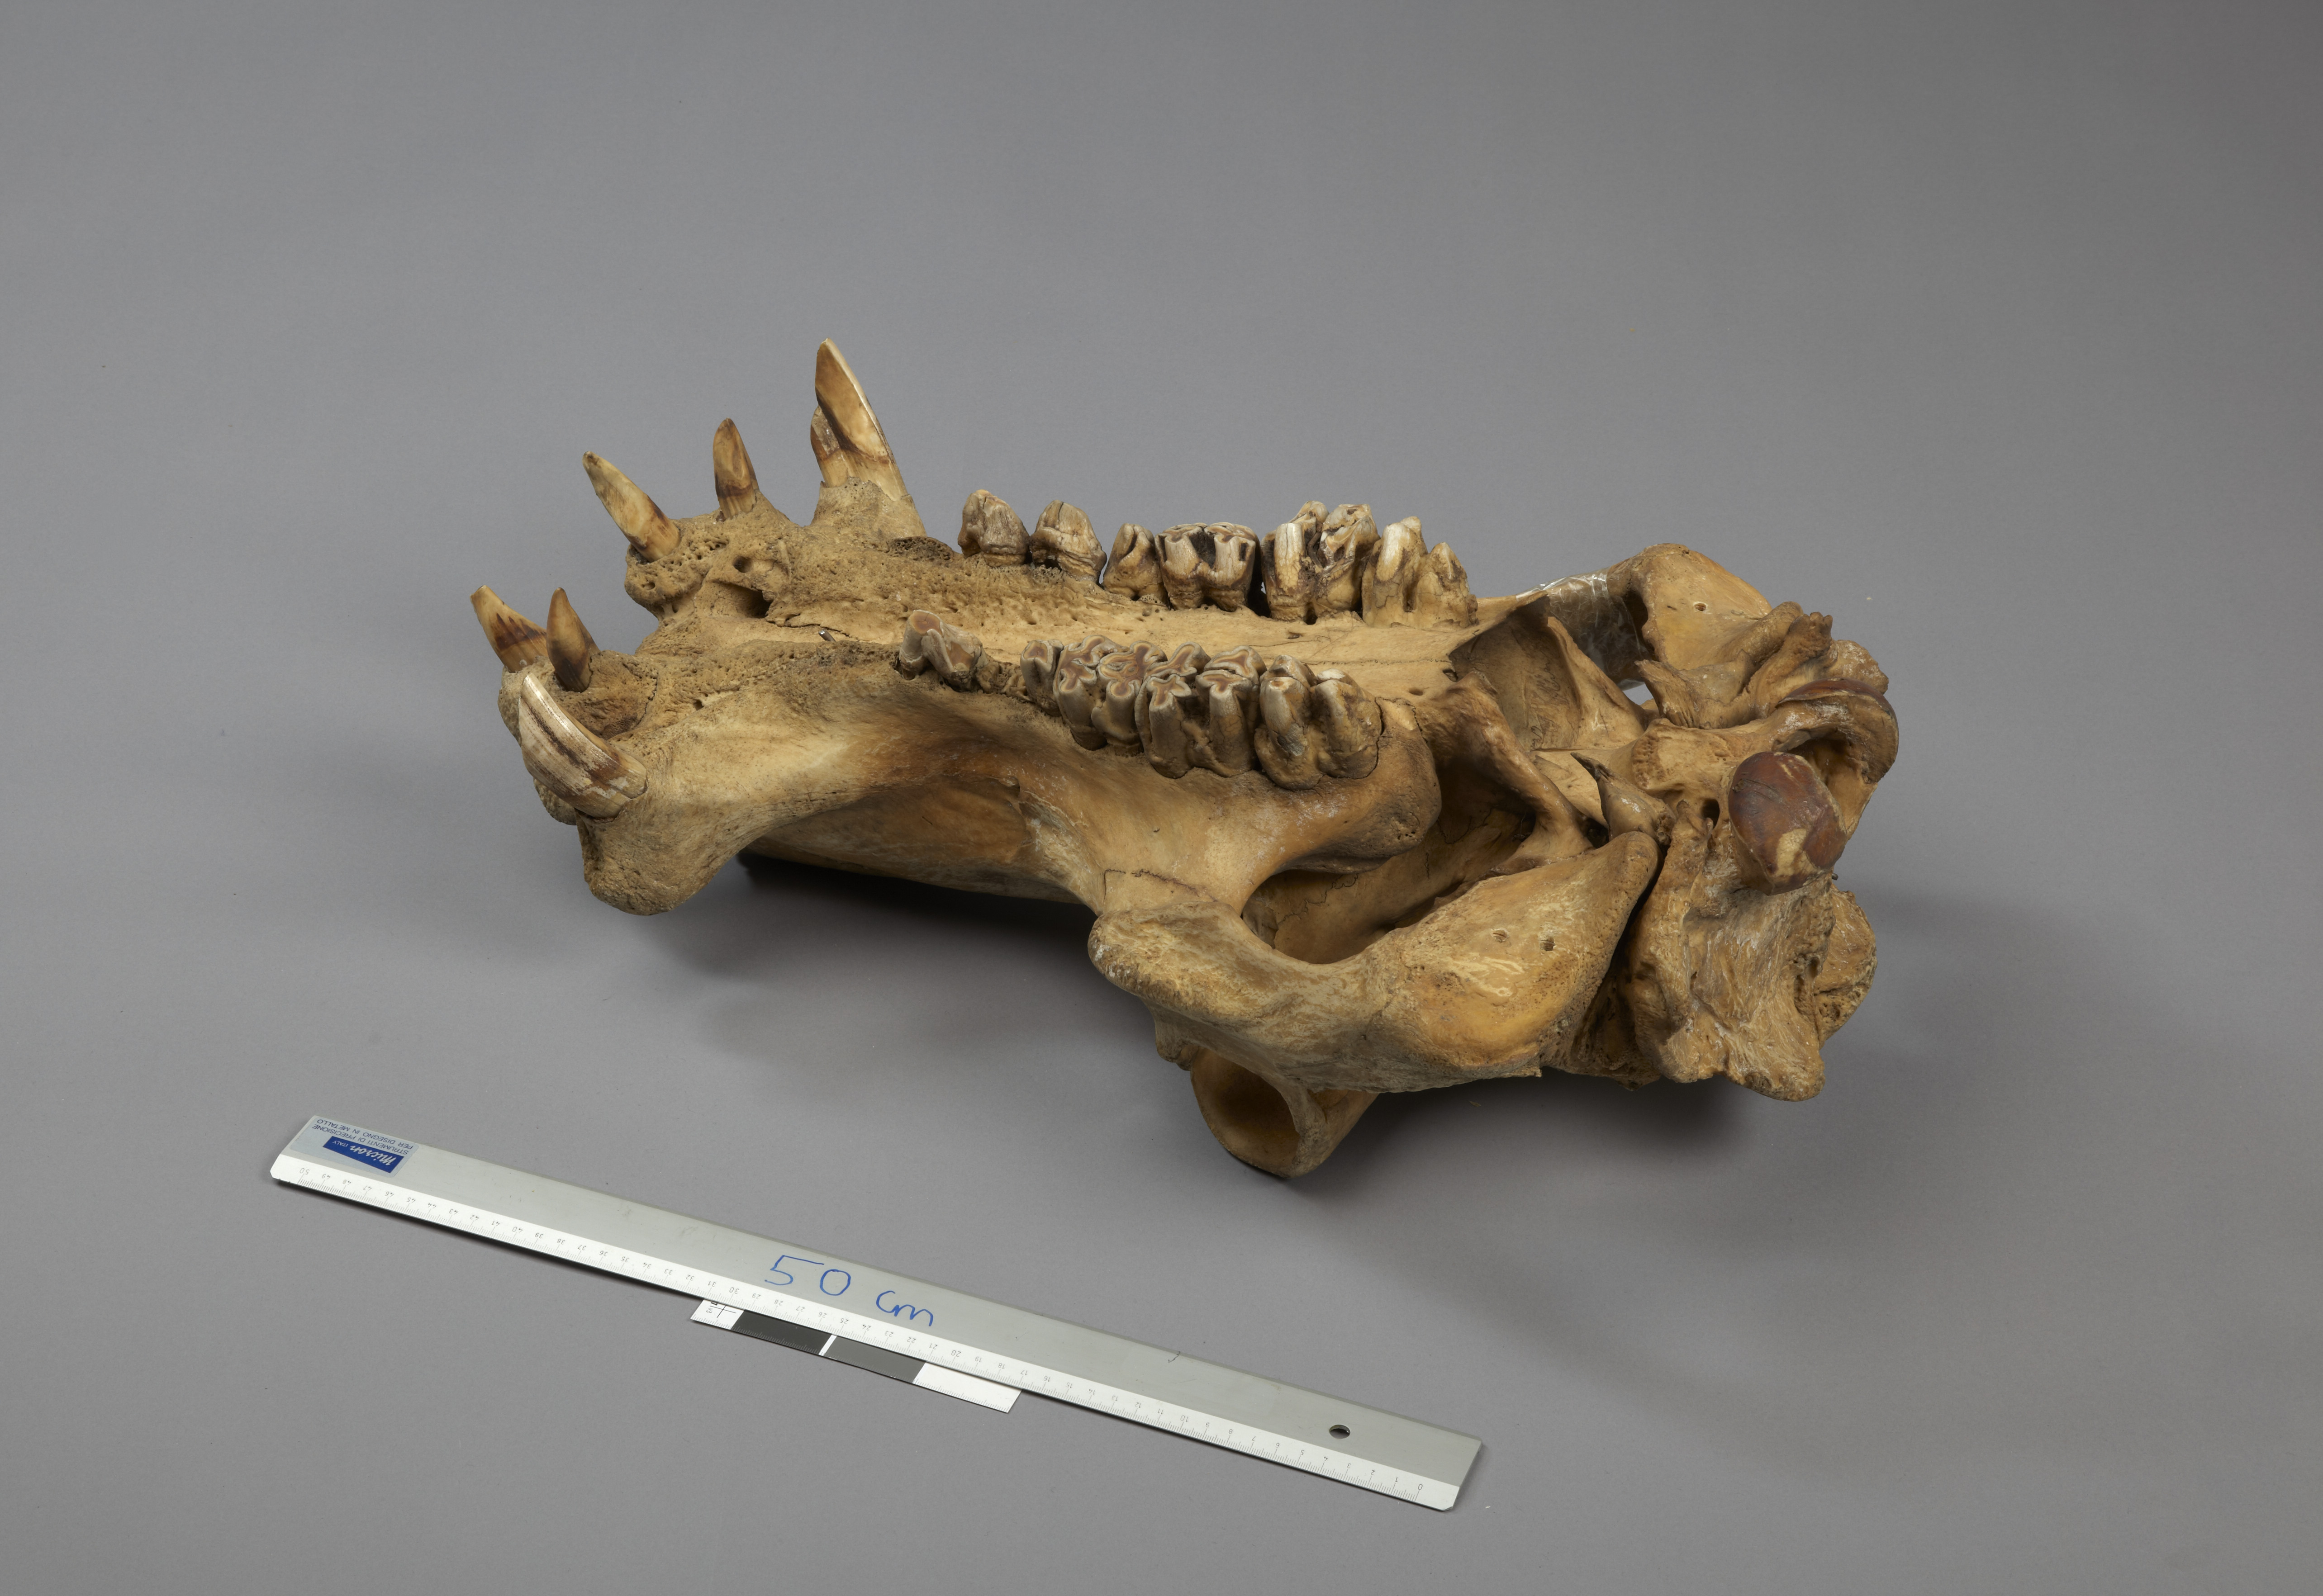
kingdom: Animalia
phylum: Chordata
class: Mammalia
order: Artiodactyla
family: Hippopotamidae
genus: Hippopotamus
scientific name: Hippopotamus amphibius
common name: Common hippopotamus
